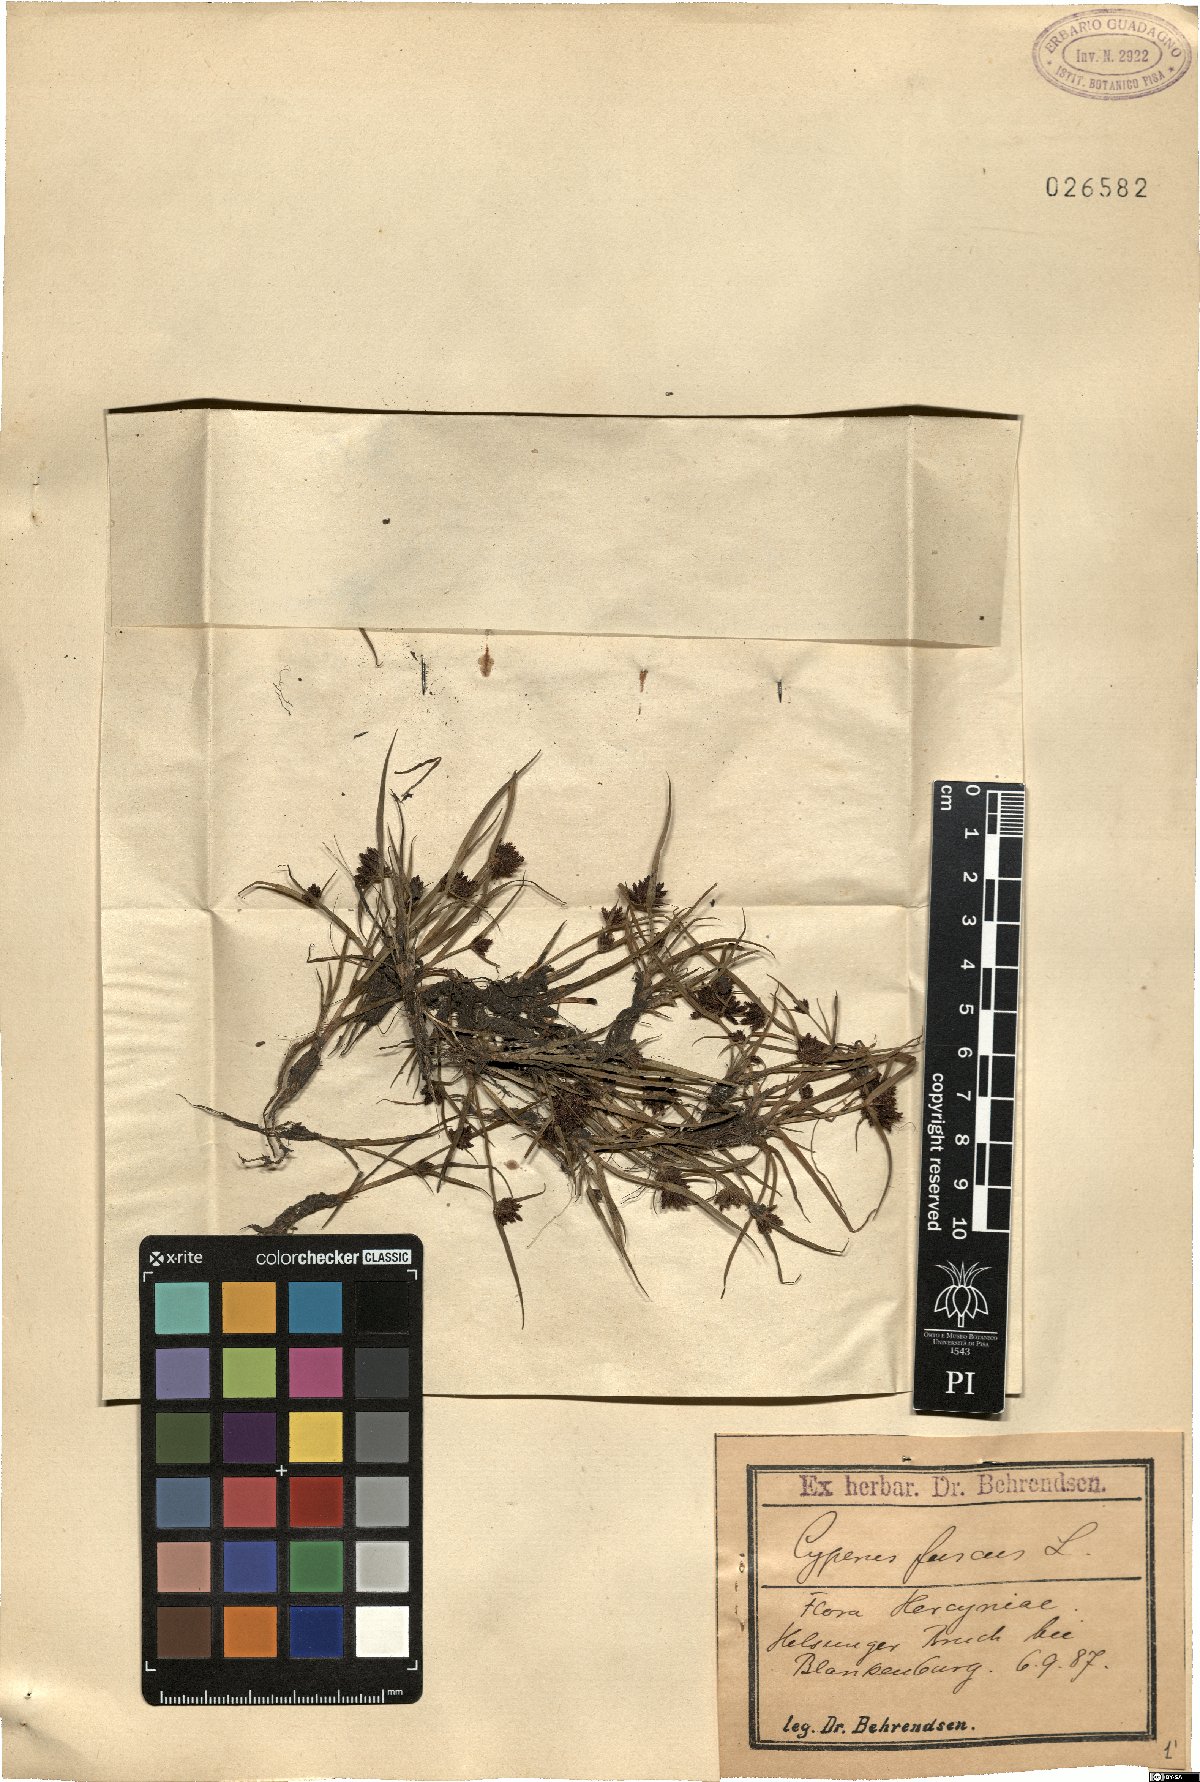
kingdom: Plantae
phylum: Tracheophyta
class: Liliopsida
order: Poales
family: Cyperaceae
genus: Cyperus
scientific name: Cyperus fuscus
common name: Brown galingale
